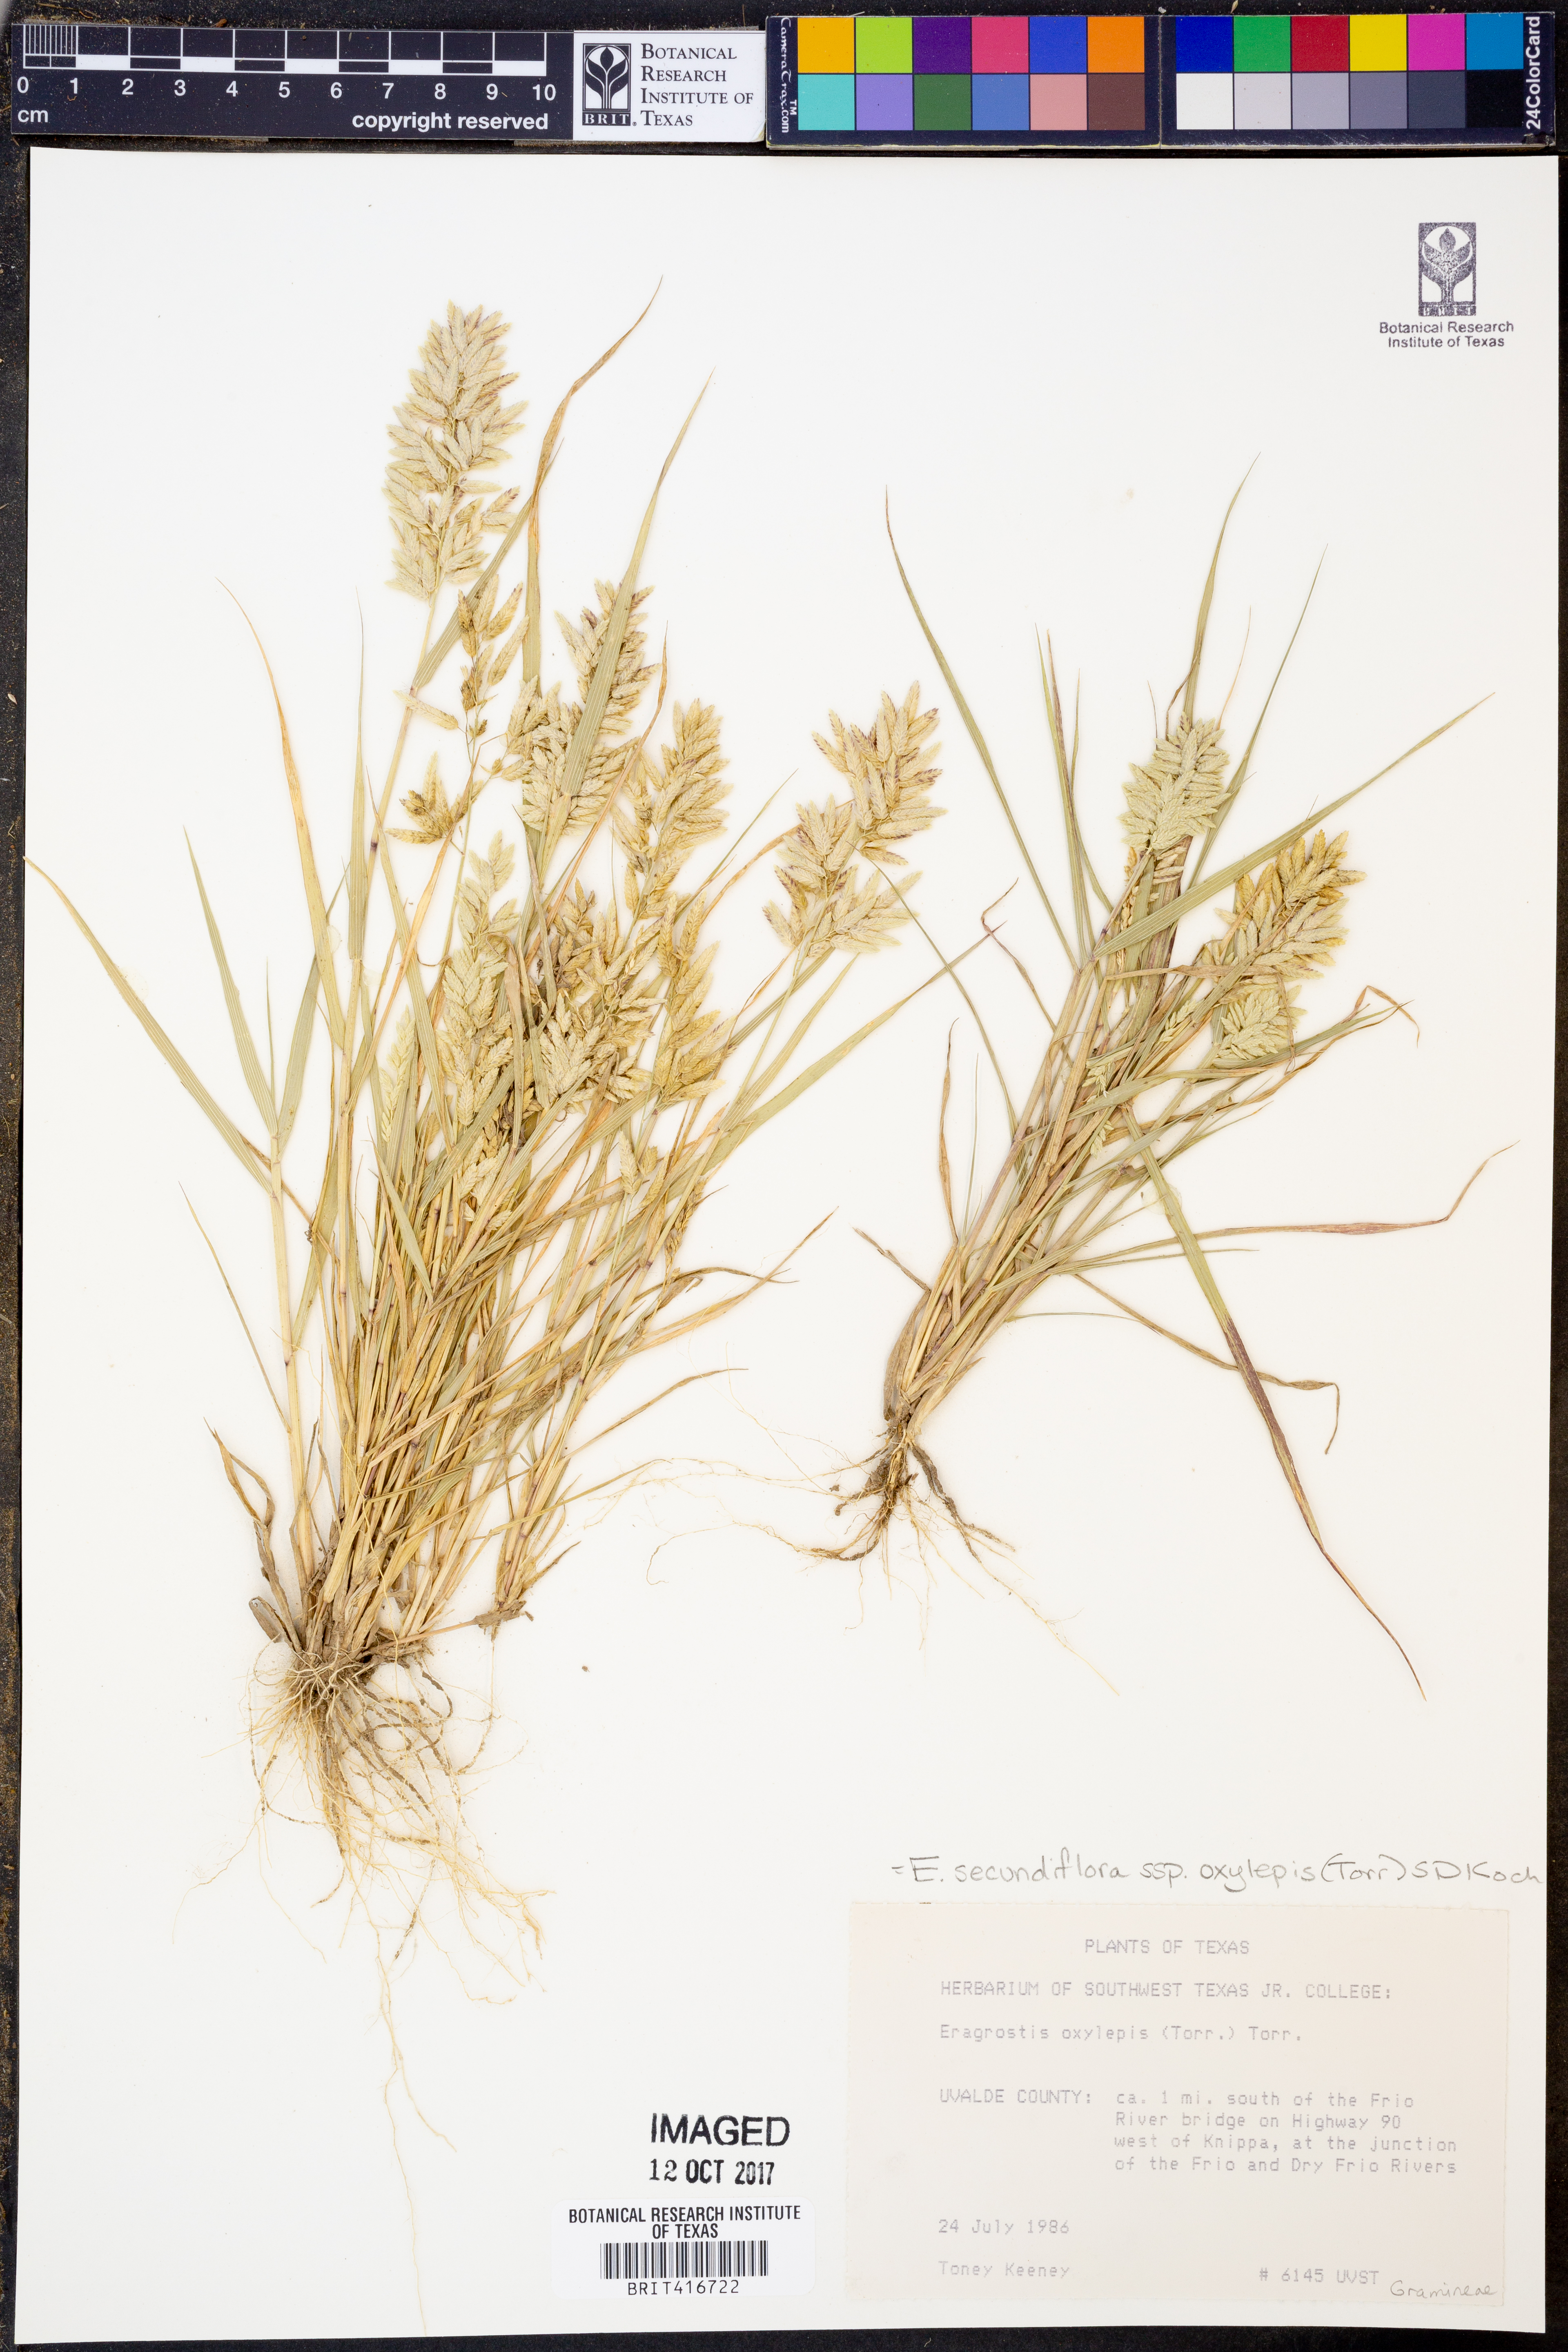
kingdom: Plantae
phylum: Tracheophyta
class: Liliopsida
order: Poales
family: Poaceae
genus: Eragrostis
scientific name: Eragrostis secundiflora
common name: Red love grass
